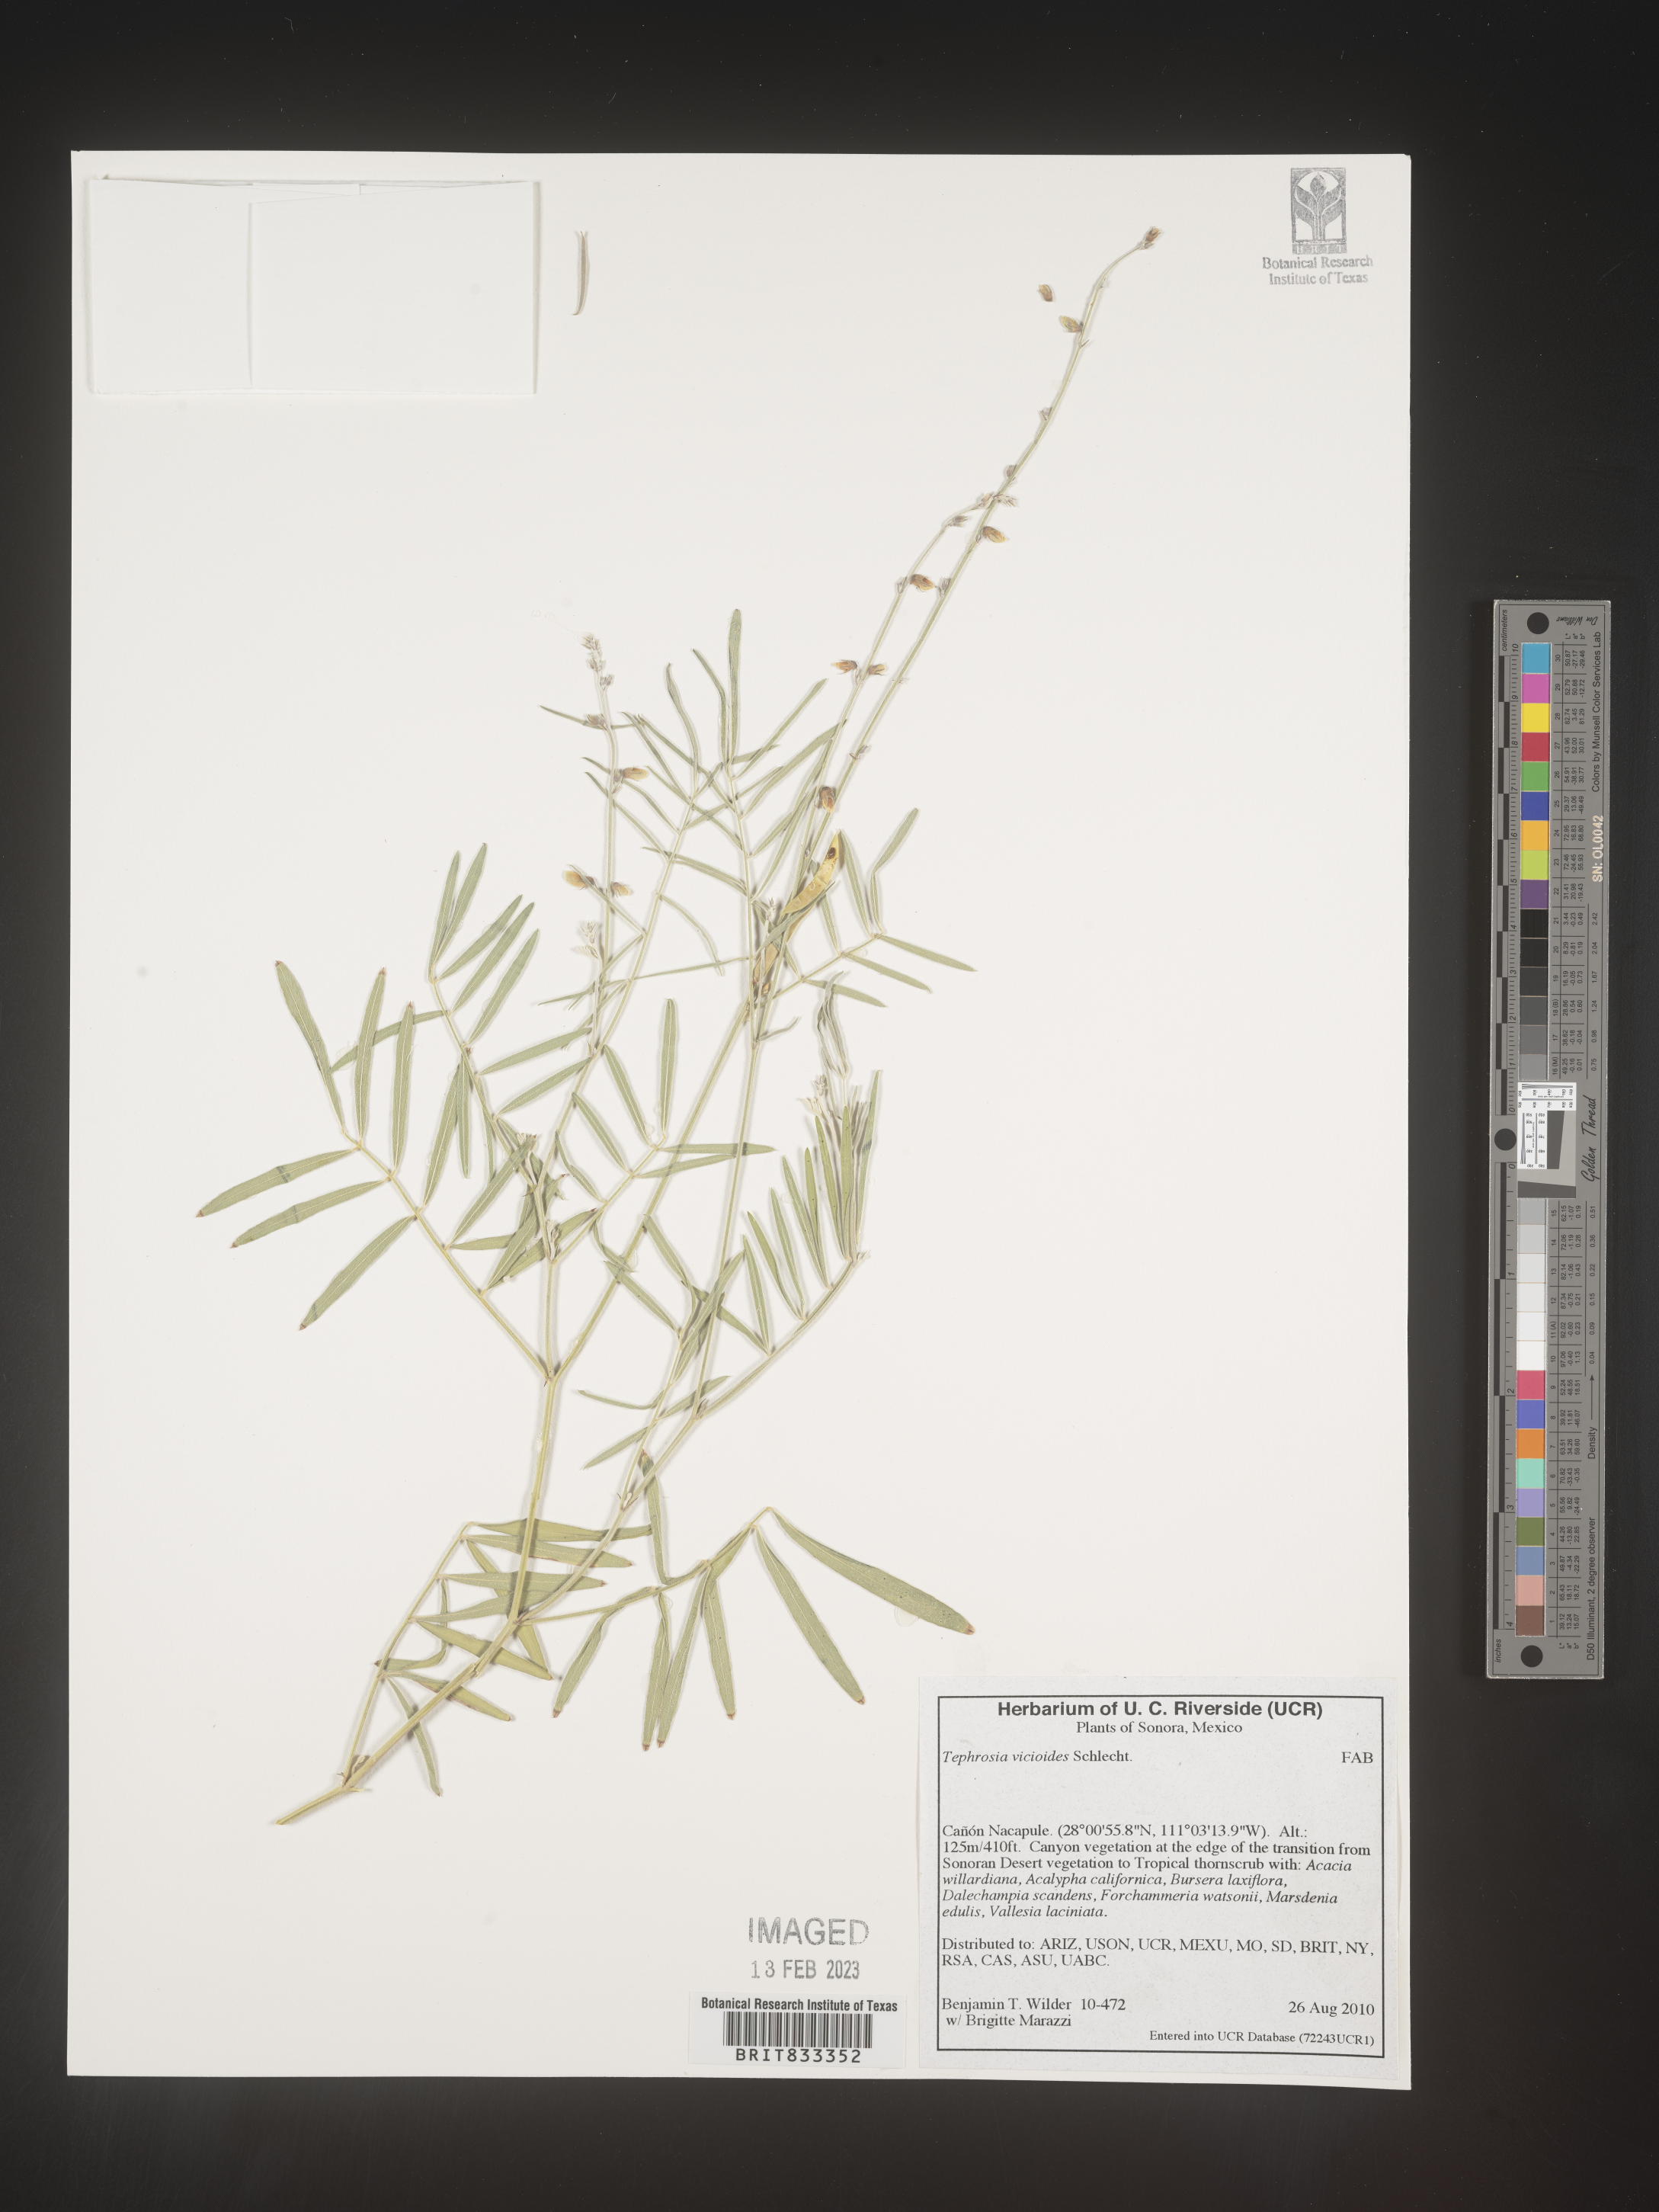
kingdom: Plantae
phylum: Tracheophyta
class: Magnoliopsida
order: Fabales
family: Fabaceae
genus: Tephrosia
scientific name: Tephrosia
